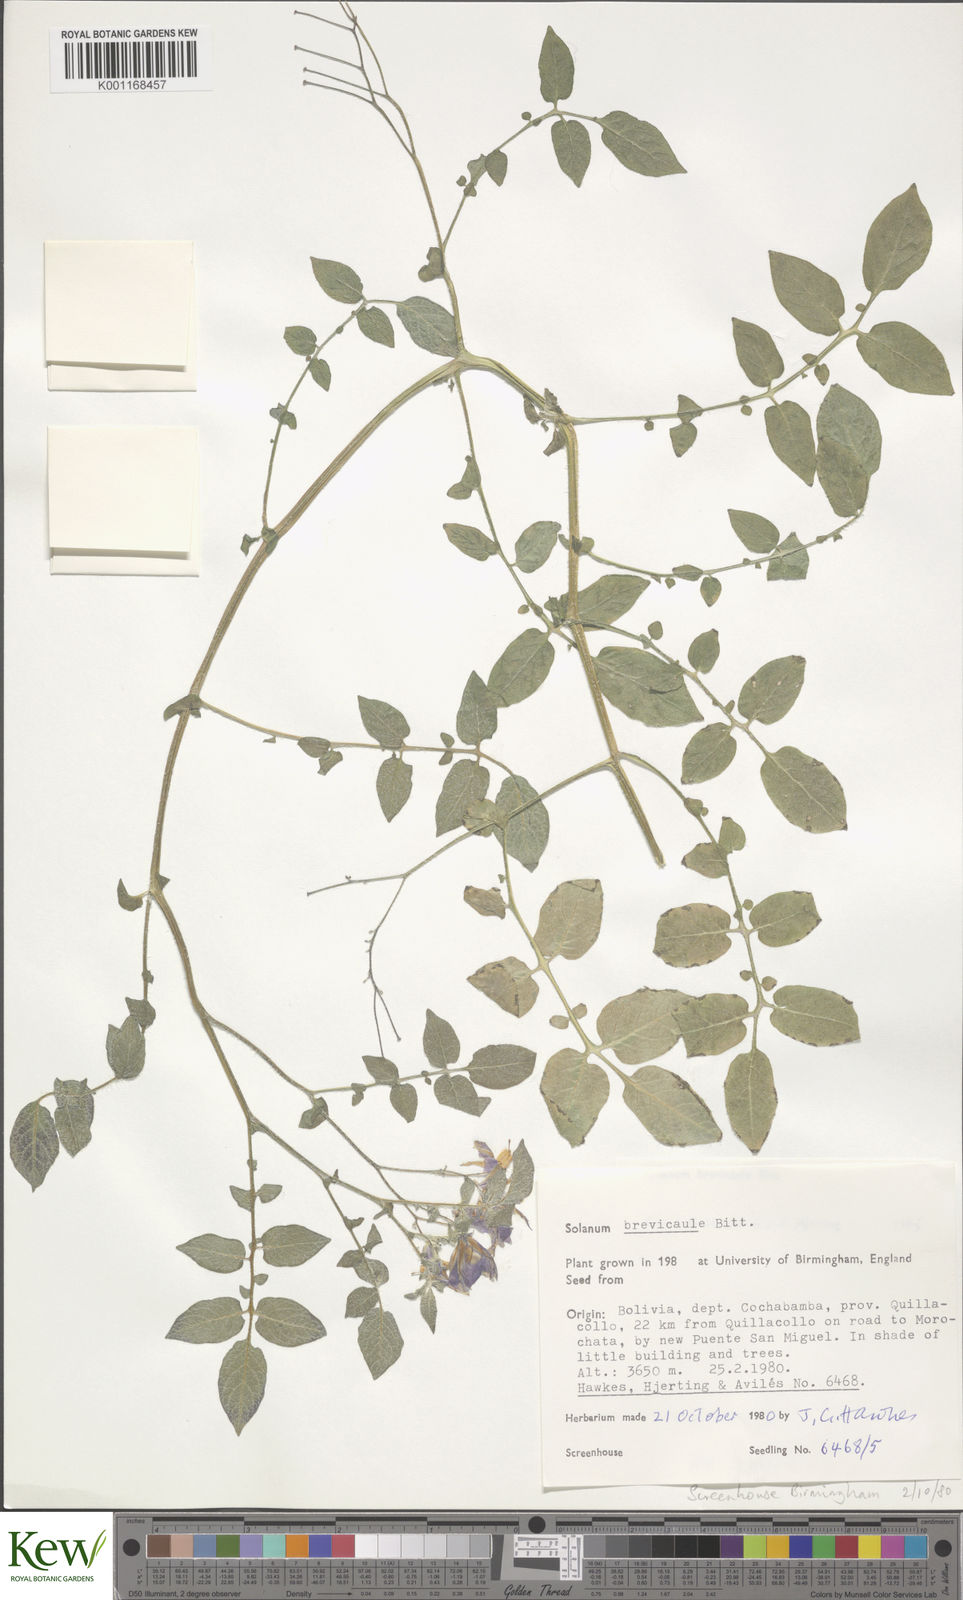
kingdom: Plantae
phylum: Tracheophyta
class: Magnoliopsida
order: Solanales
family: Solanaceae
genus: Solanum
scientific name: Solanum brevicaule
